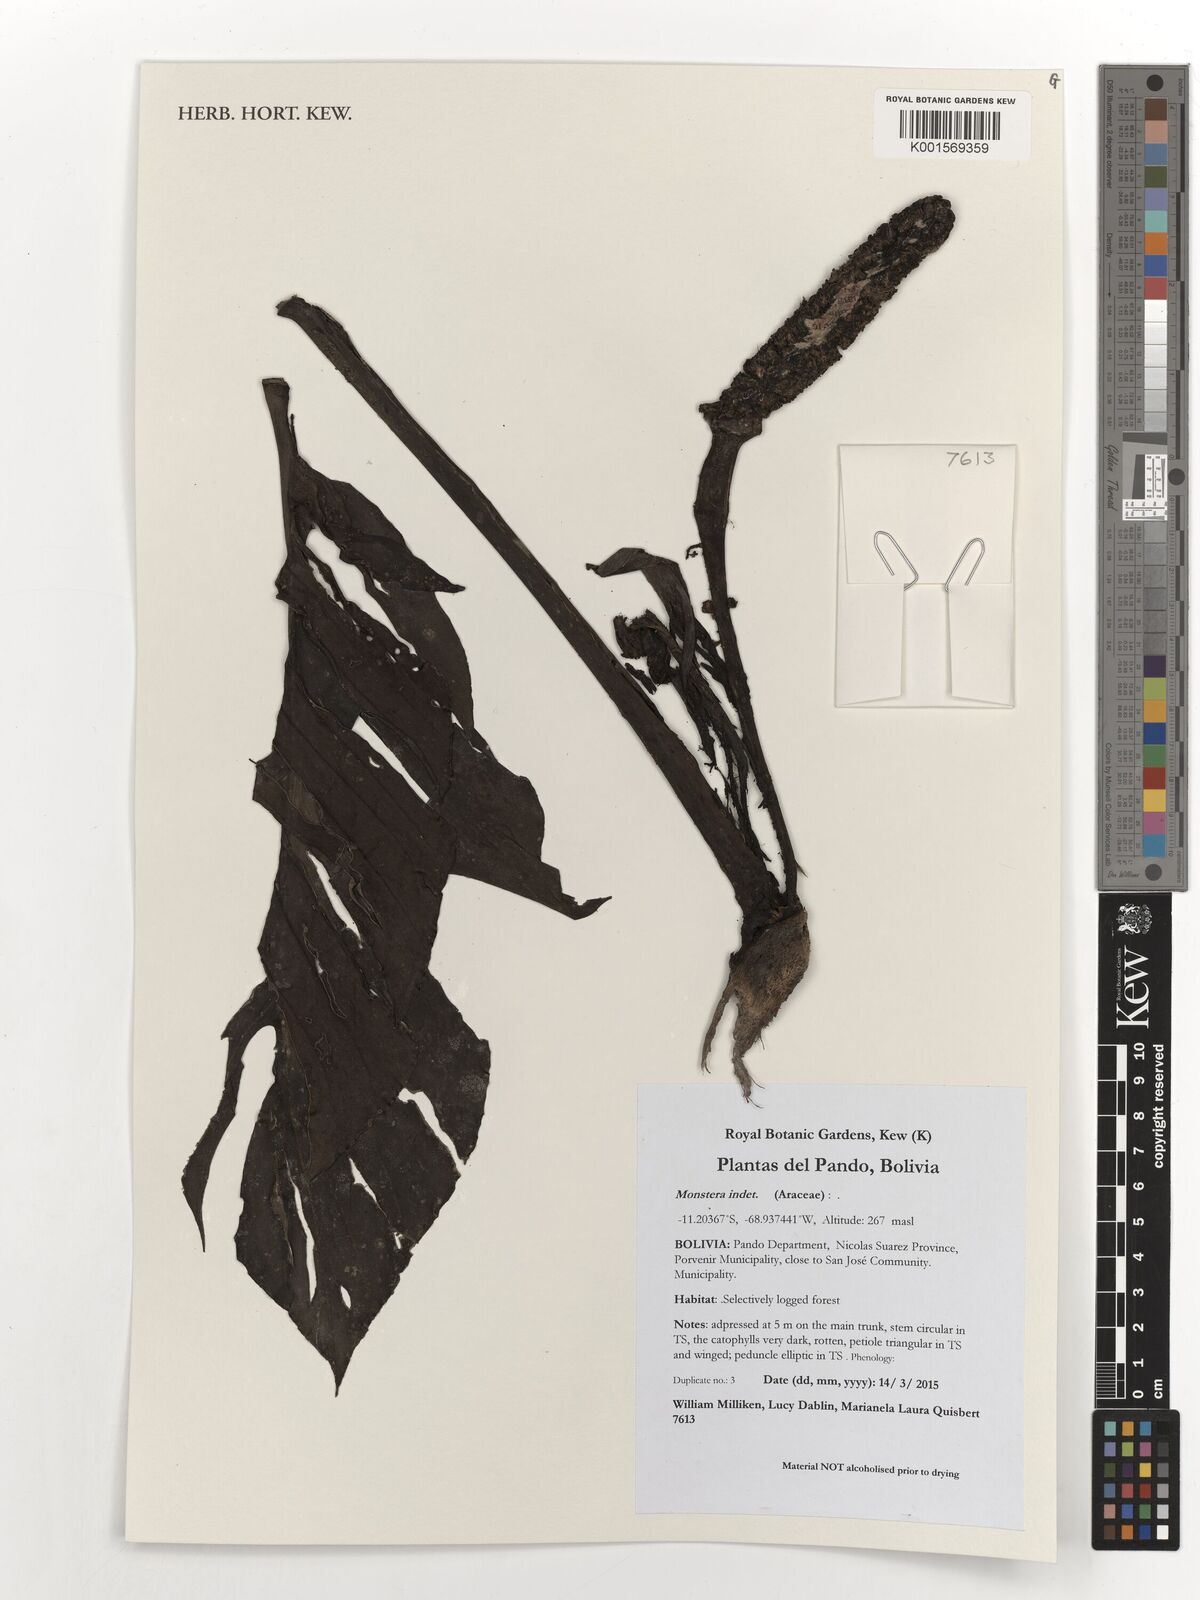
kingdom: Plantae
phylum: Tracheophyta
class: Liliopsida
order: Alismatales
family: Araceae
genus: Monstera
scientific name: Monstera
